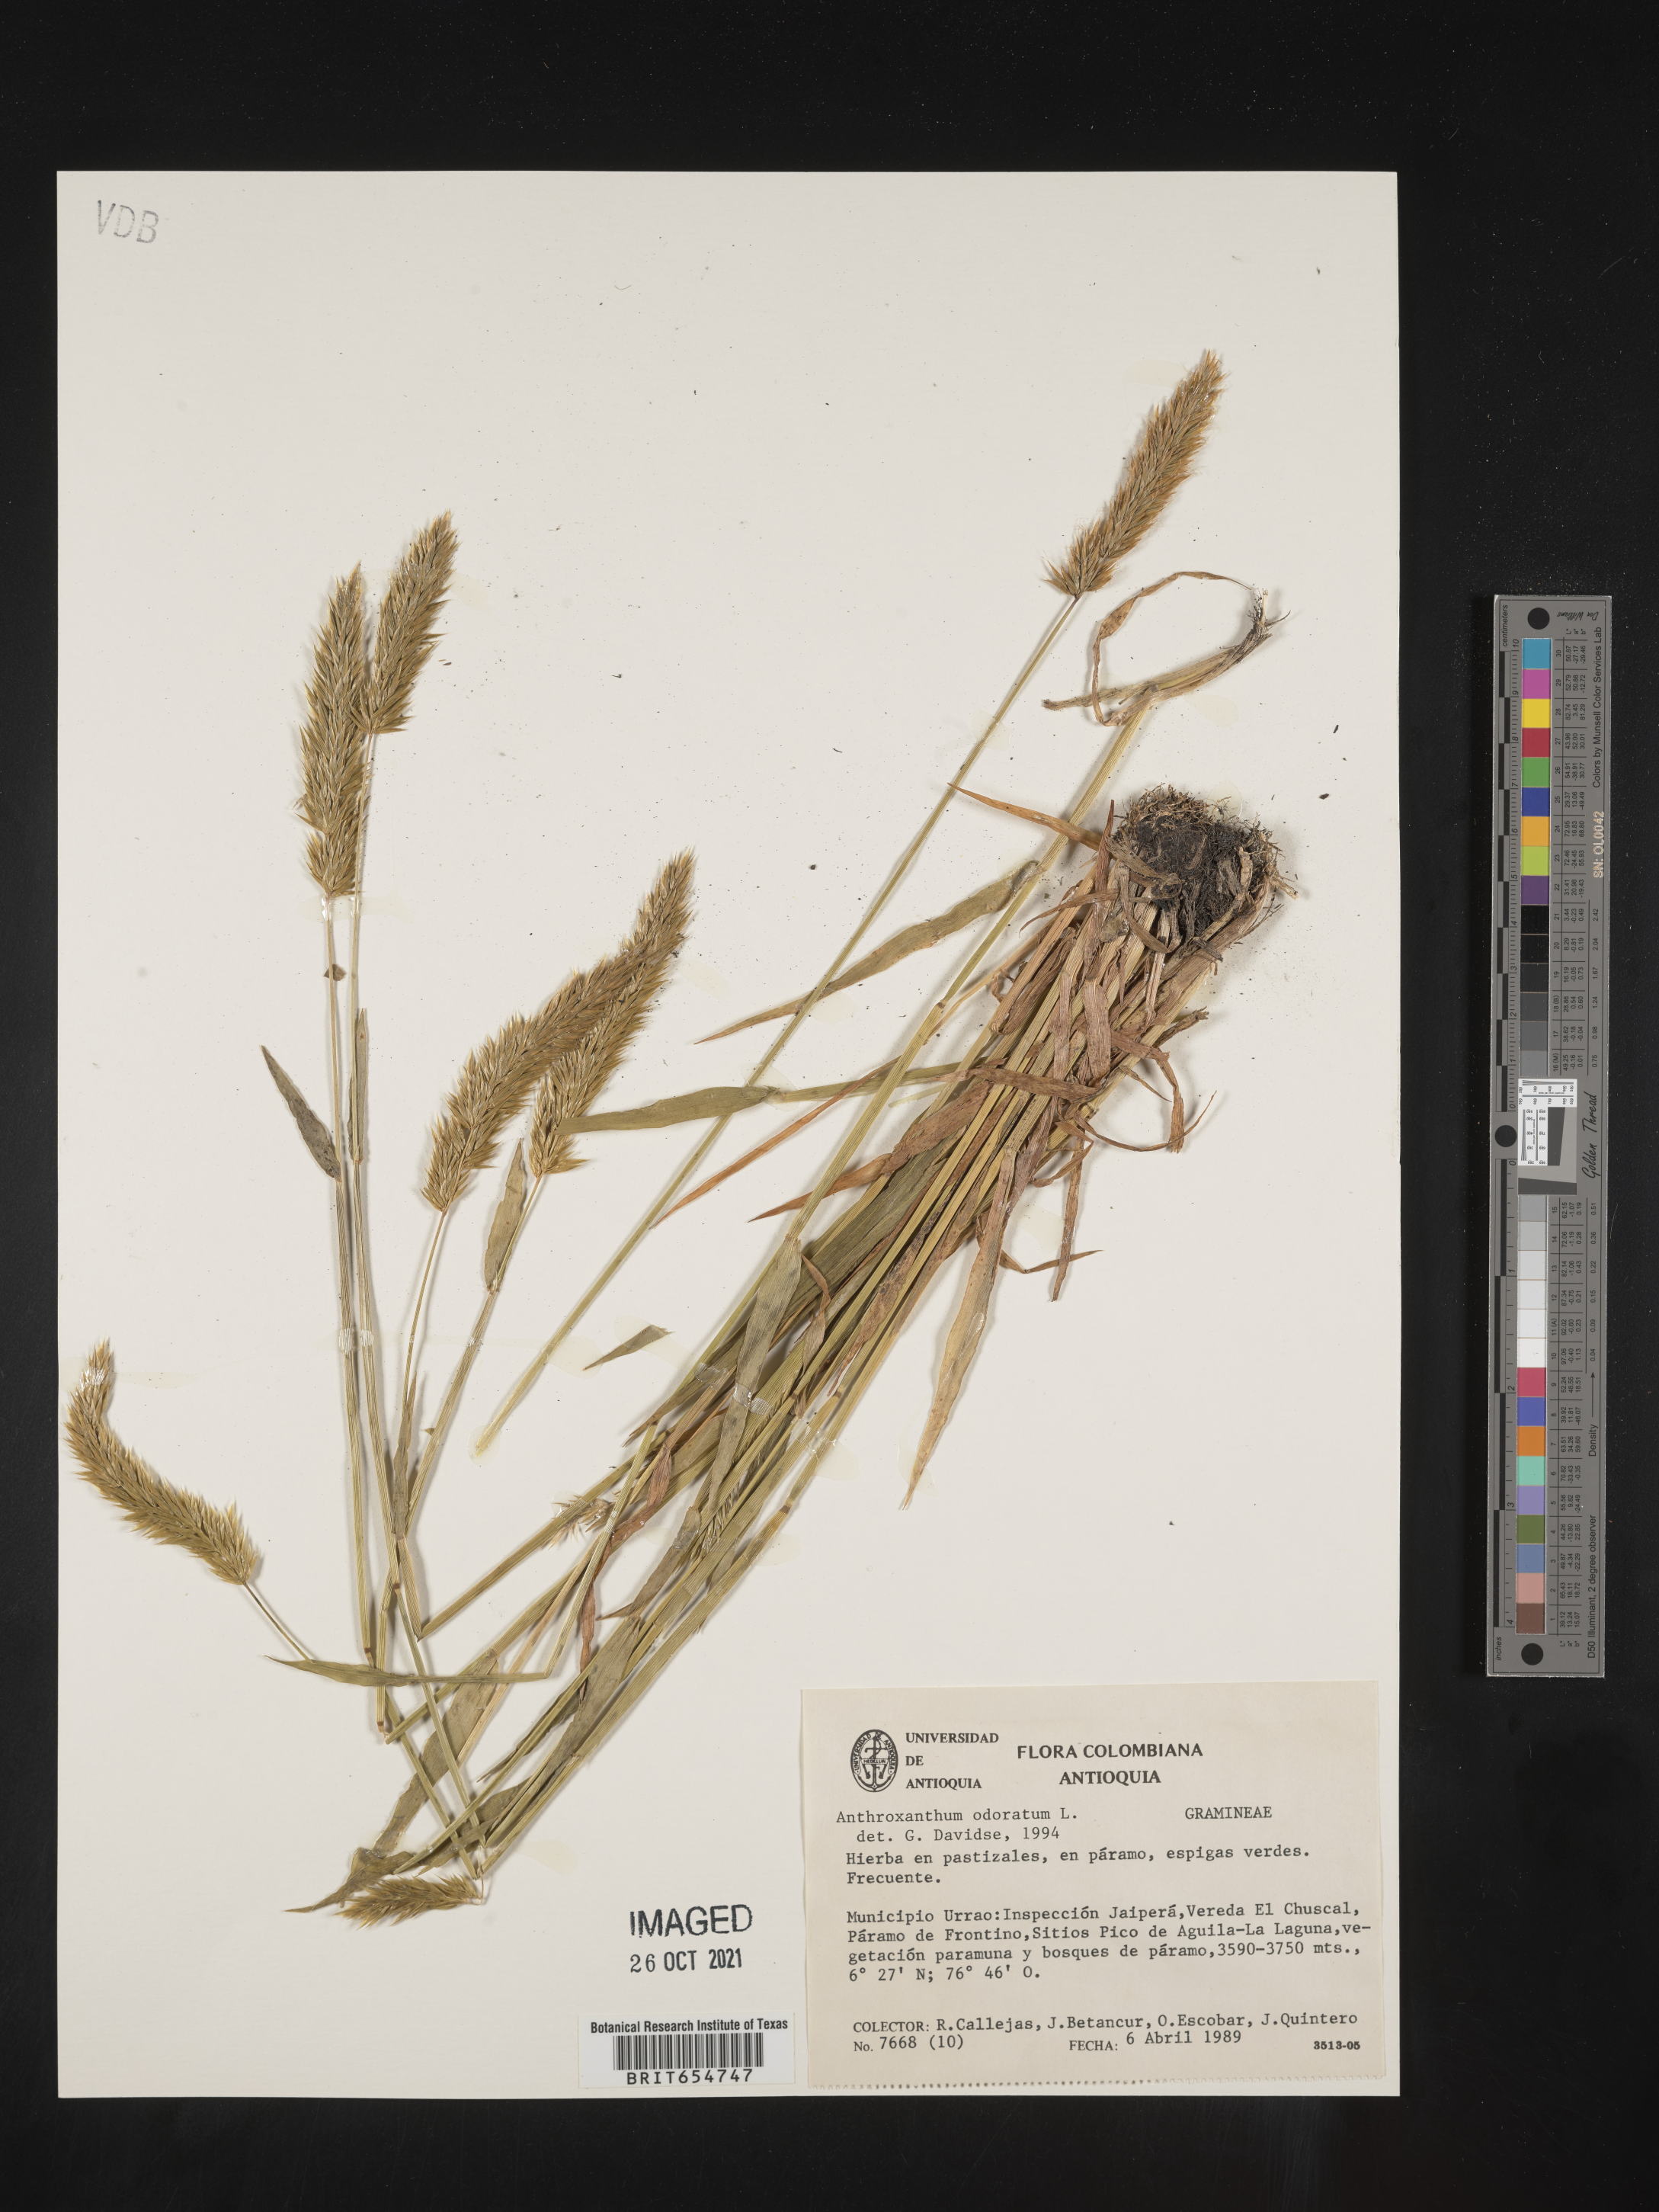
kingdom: Plantae
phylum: Tracheophyta
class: Liliopsida
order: Poales
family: Poaceae
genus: Anthoxanthum
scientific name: Anthoxanthum
